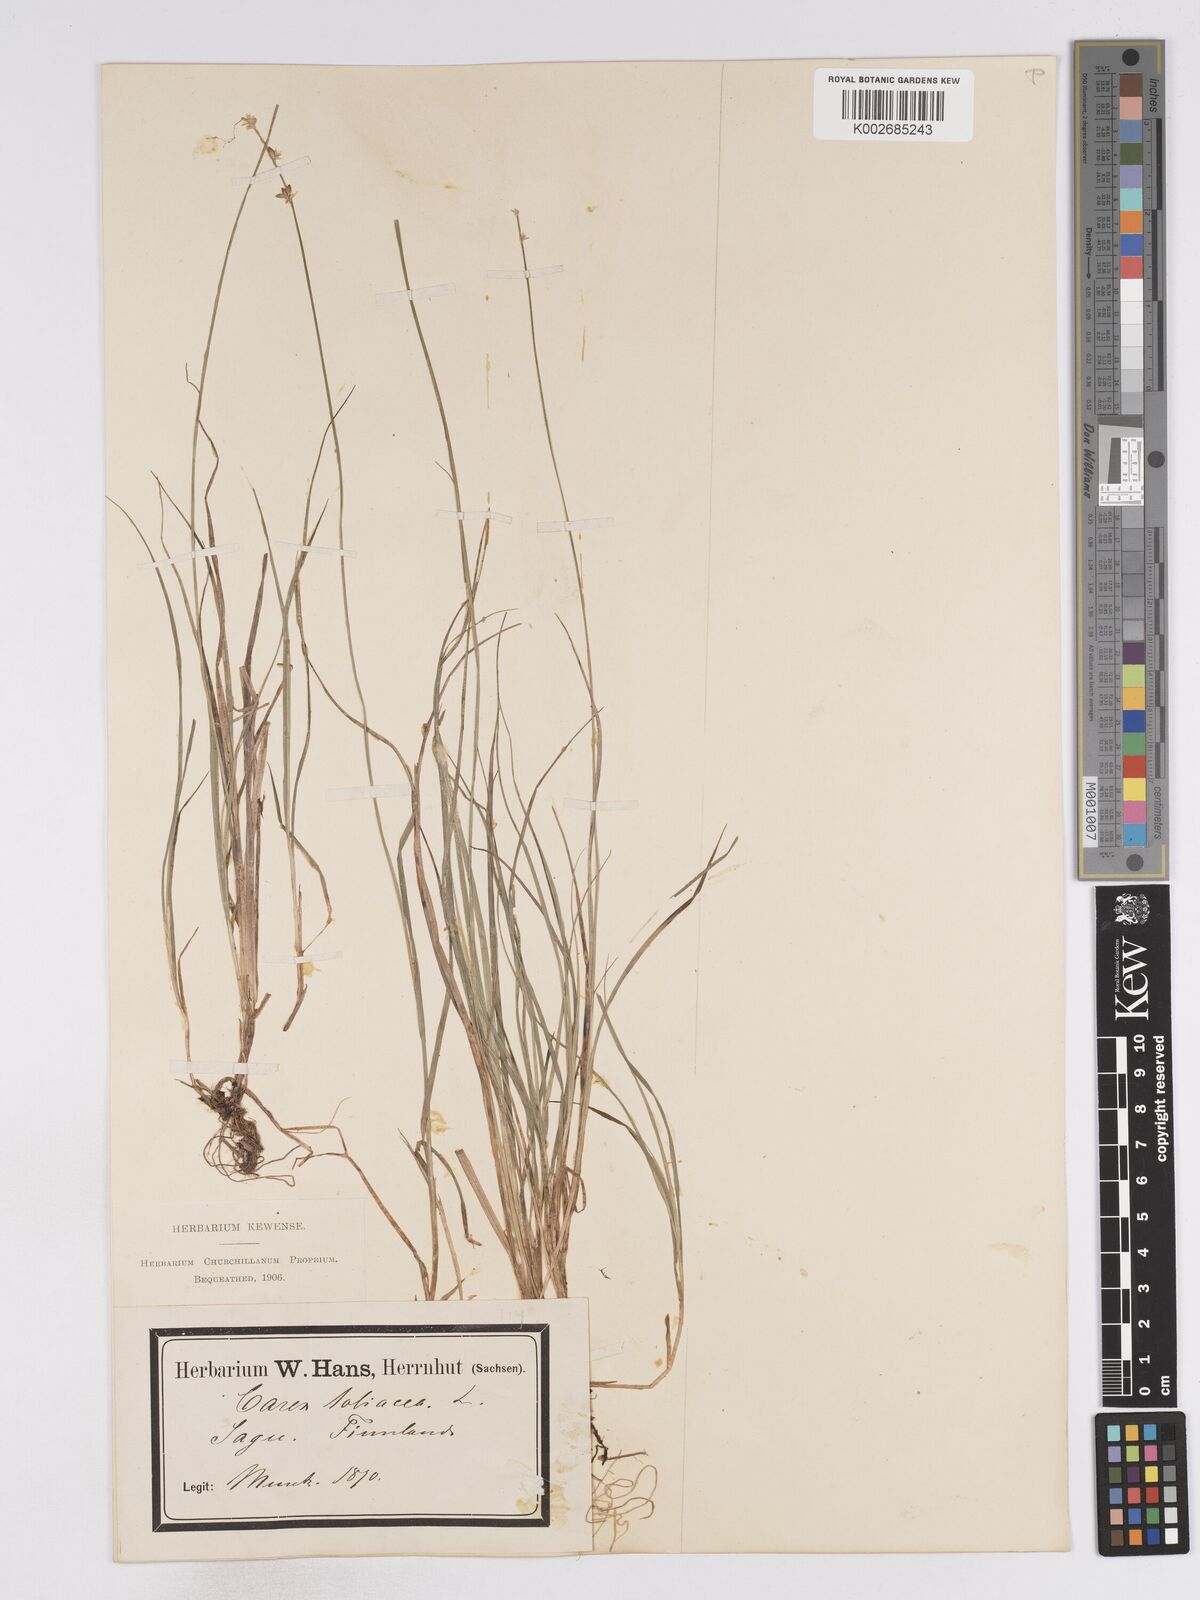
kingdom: Plantae
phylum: Tracheophyta
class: Liliopsida
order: Poales
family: Cyperaceae
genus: Carex
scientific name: Carex loliacea
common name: Ryegrass sedge
